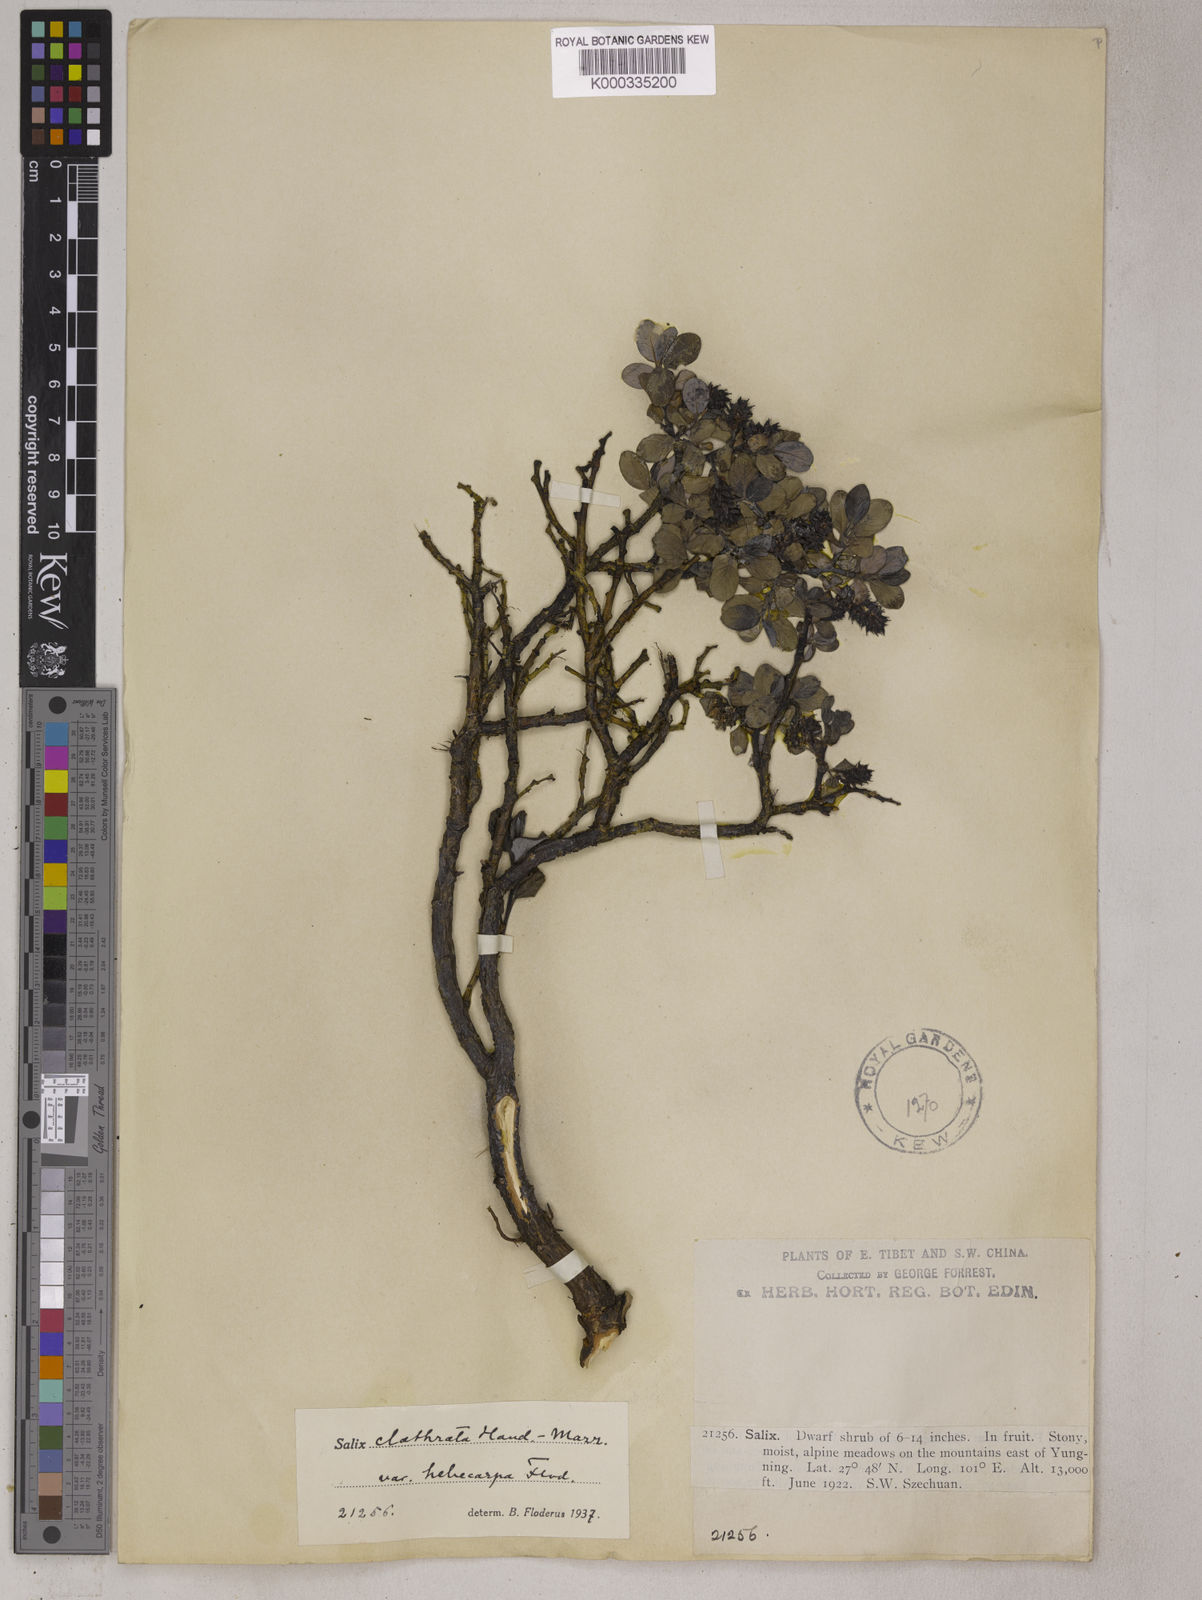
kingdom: Plantae
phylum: Tracheophyta
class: Magnoliopsida
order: Malpighiales
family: Salicaceae
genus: Salix
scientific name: Salix
